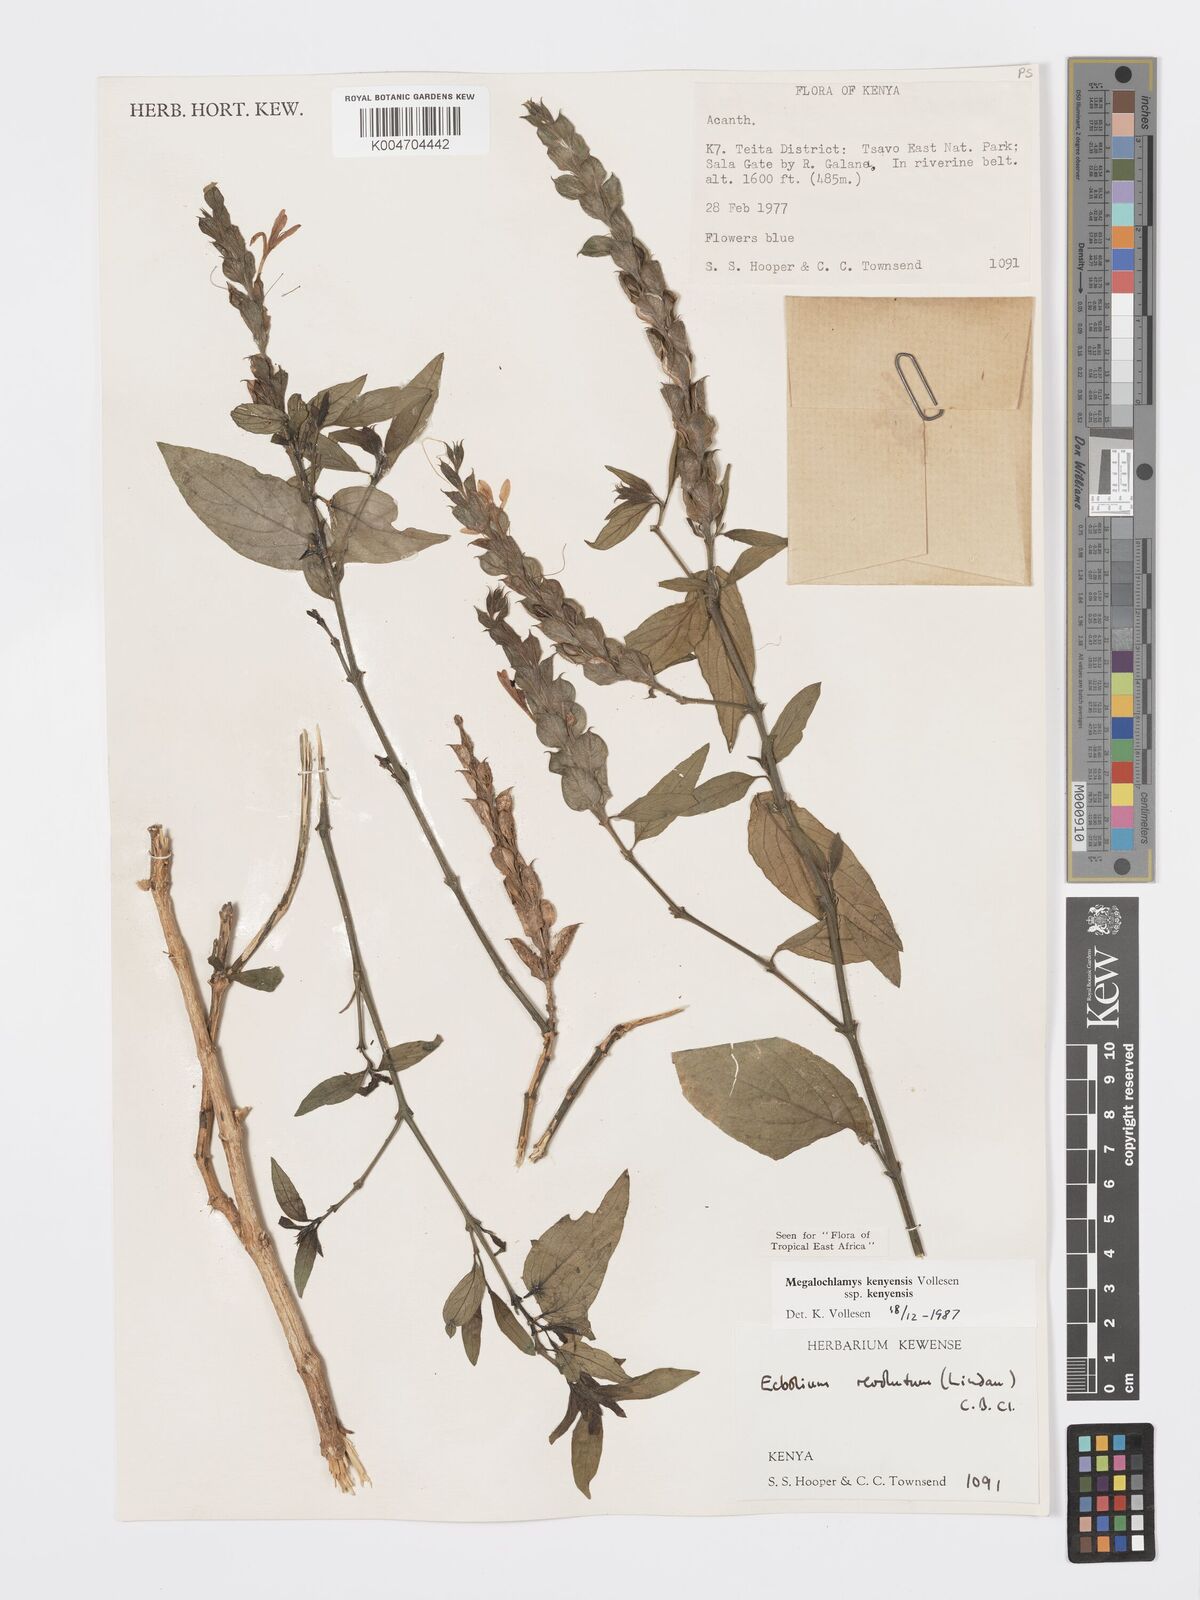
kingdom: Plantae
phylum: Tracheophyta
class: Magnoliopsida
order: Lamiales
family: Acanthaceae
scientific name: Acanthaceae
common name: Acanthaceae
